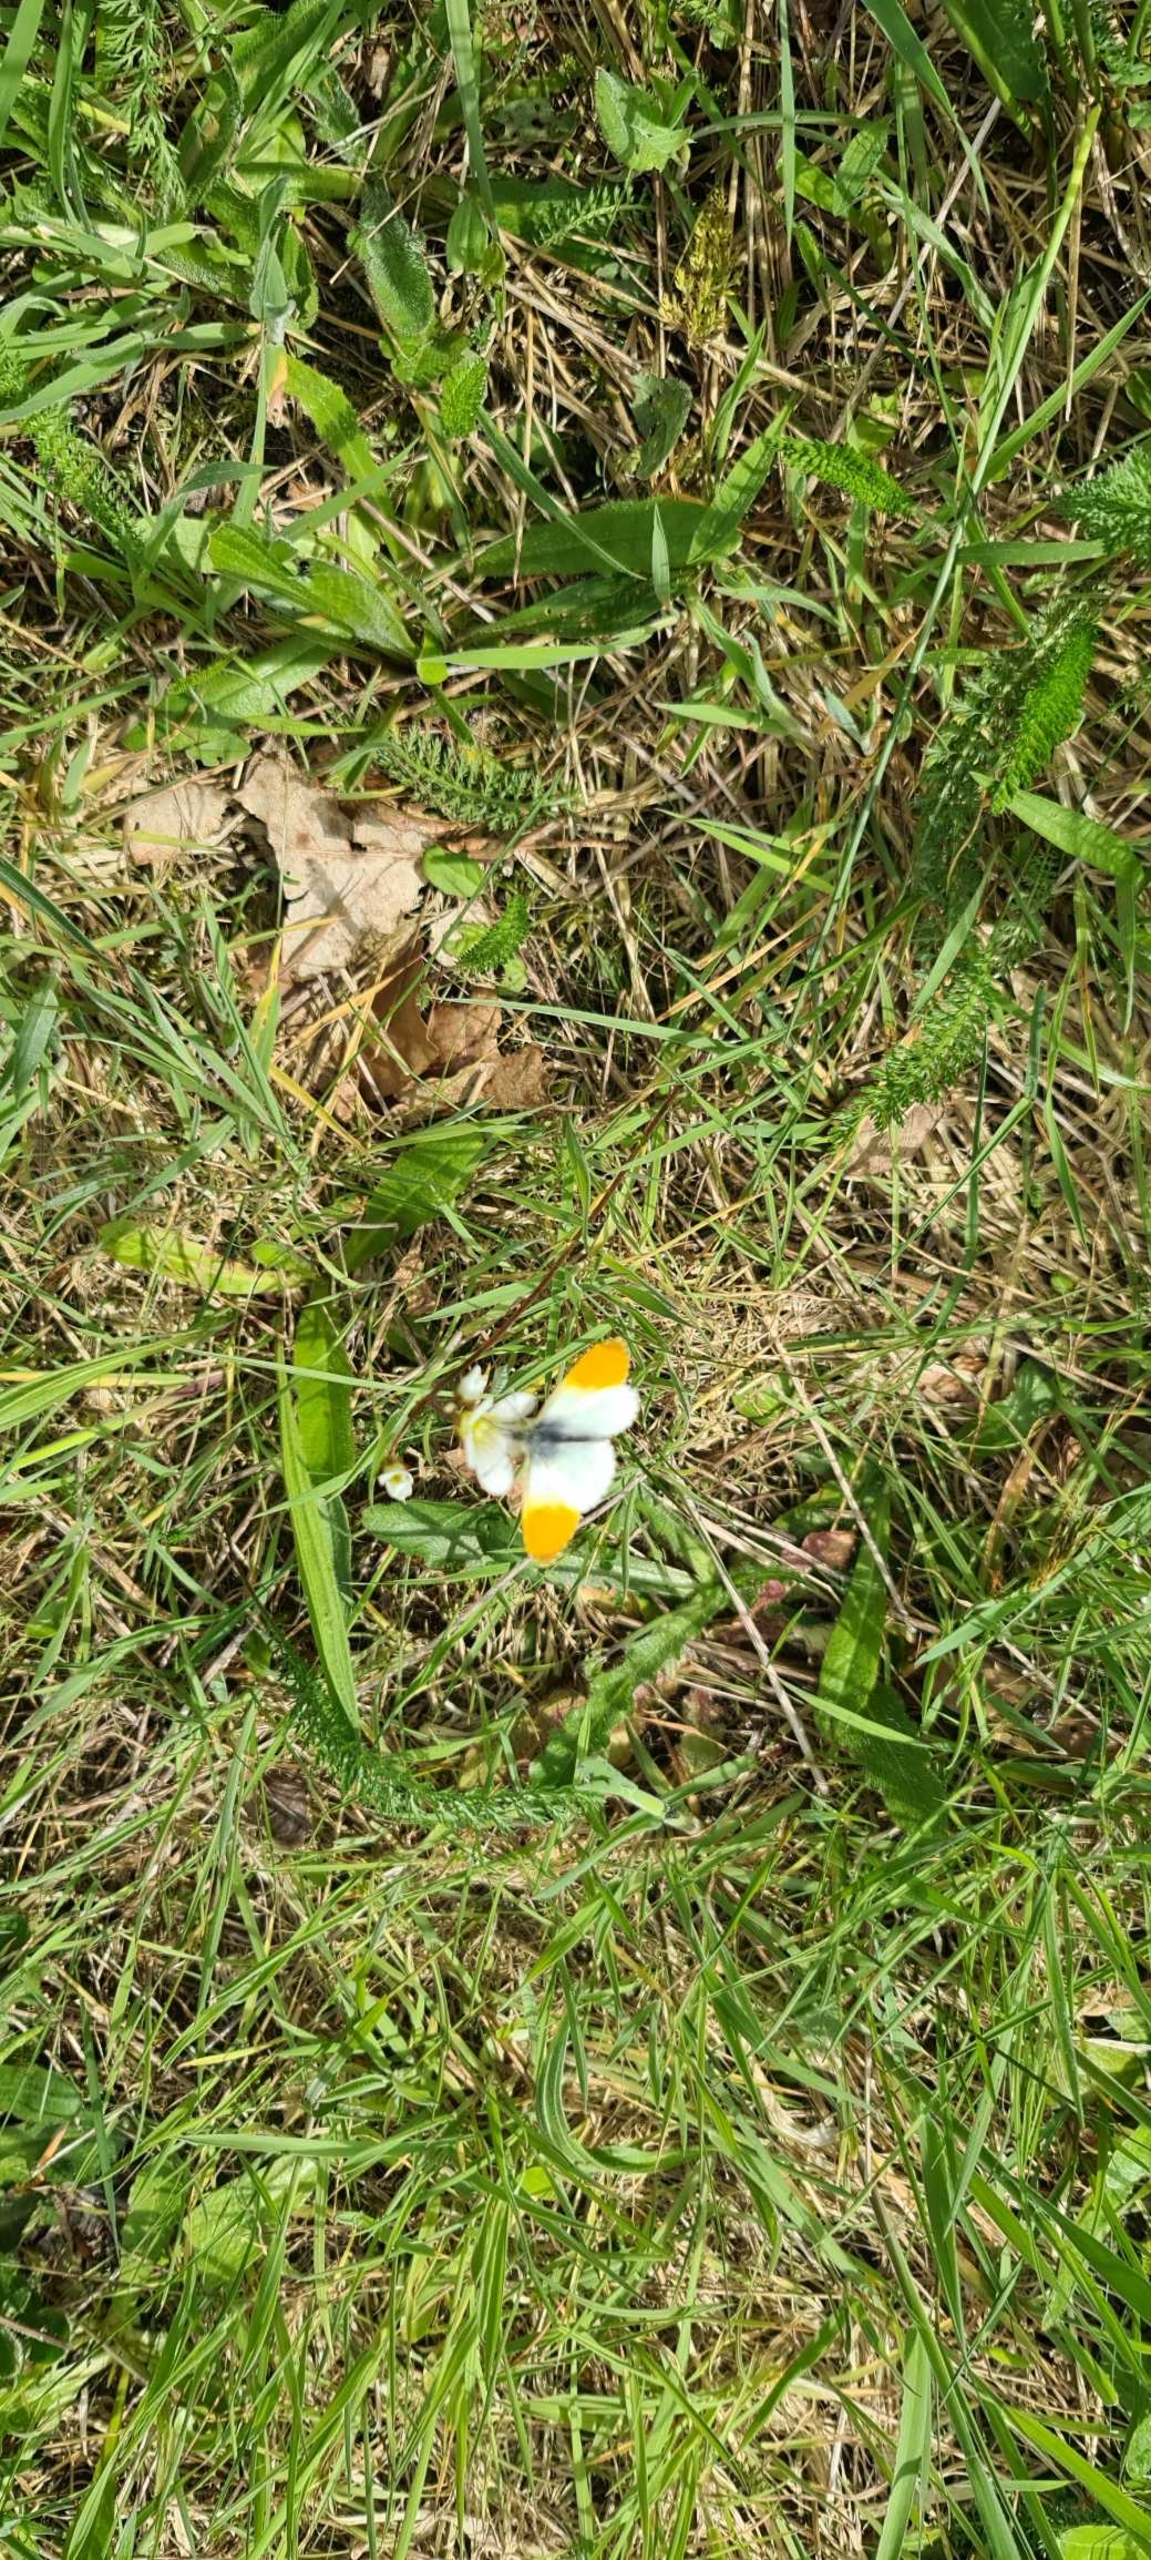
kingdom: Animalia
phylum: Arthropoda
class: Insecta
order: Lepidoptera
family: Pieridae
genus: Anthocharis
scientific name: Anthocharis cardamines
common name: Aurora
